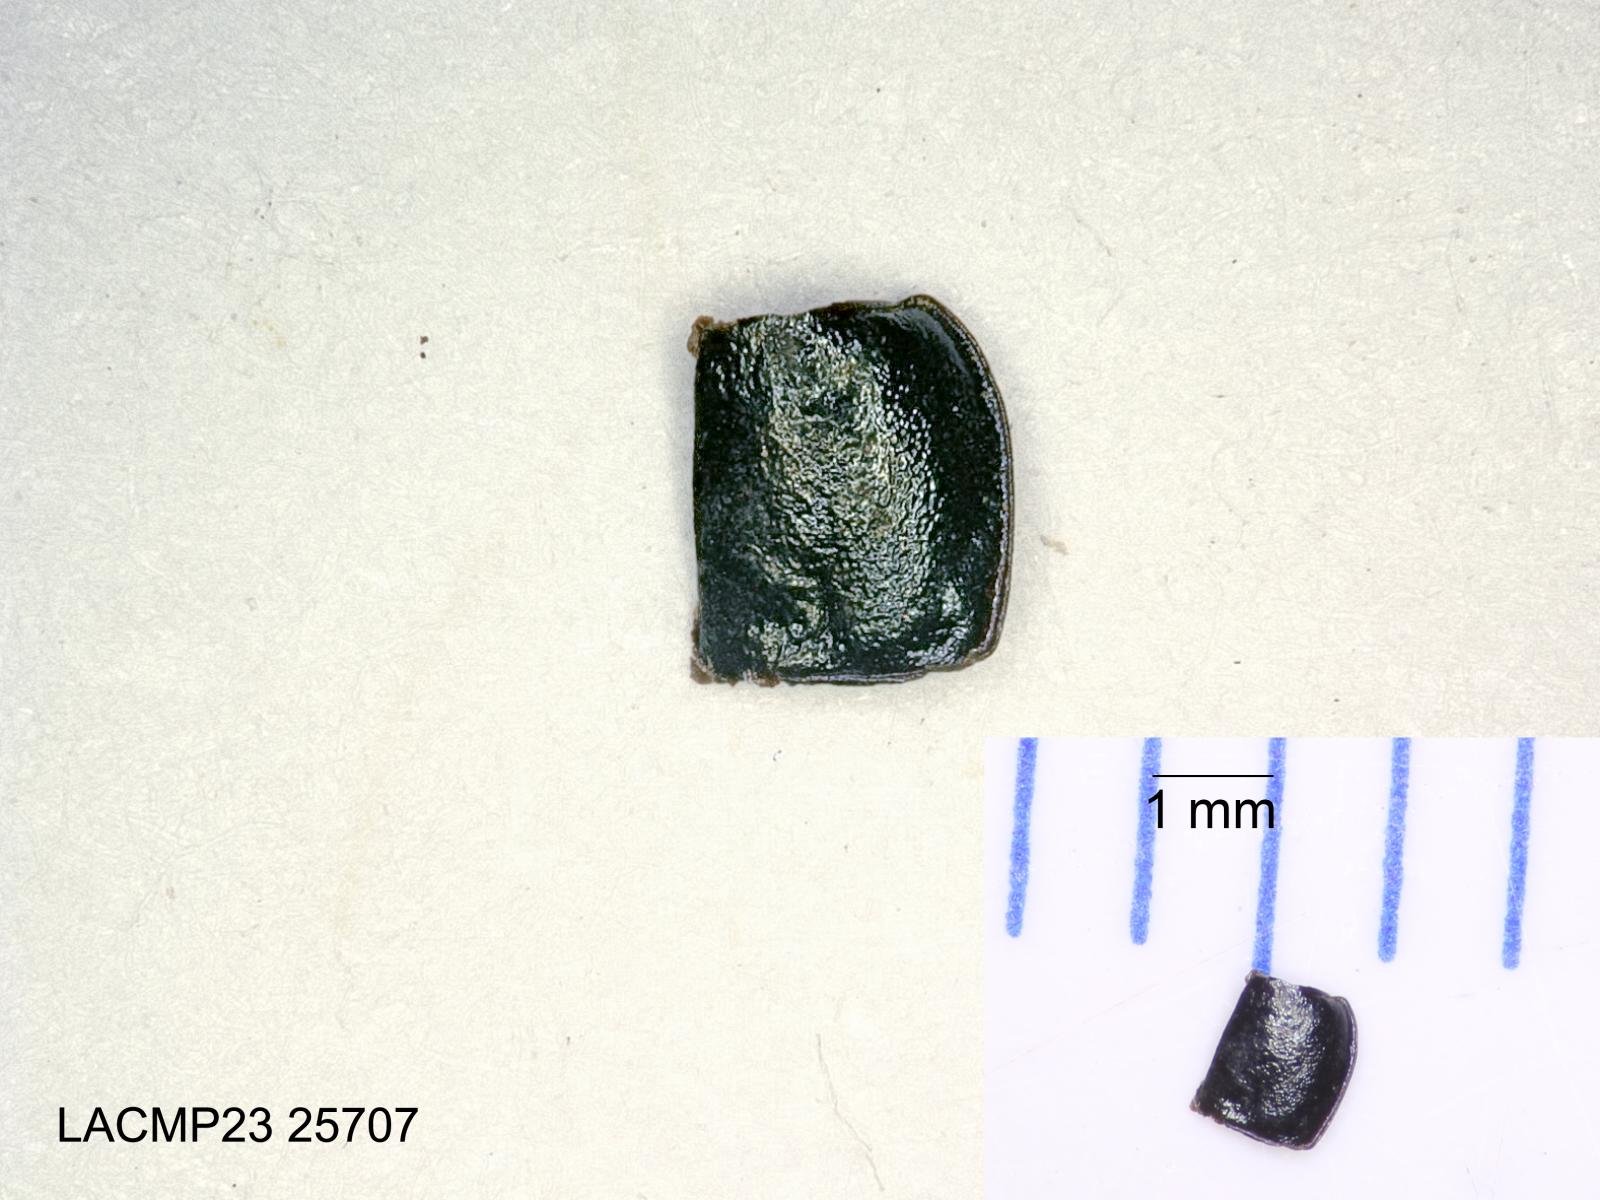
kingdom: Animalia
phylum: Arthropoda
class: Insecta
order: Coleoptera
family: Carabidae
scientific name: Carabidae
